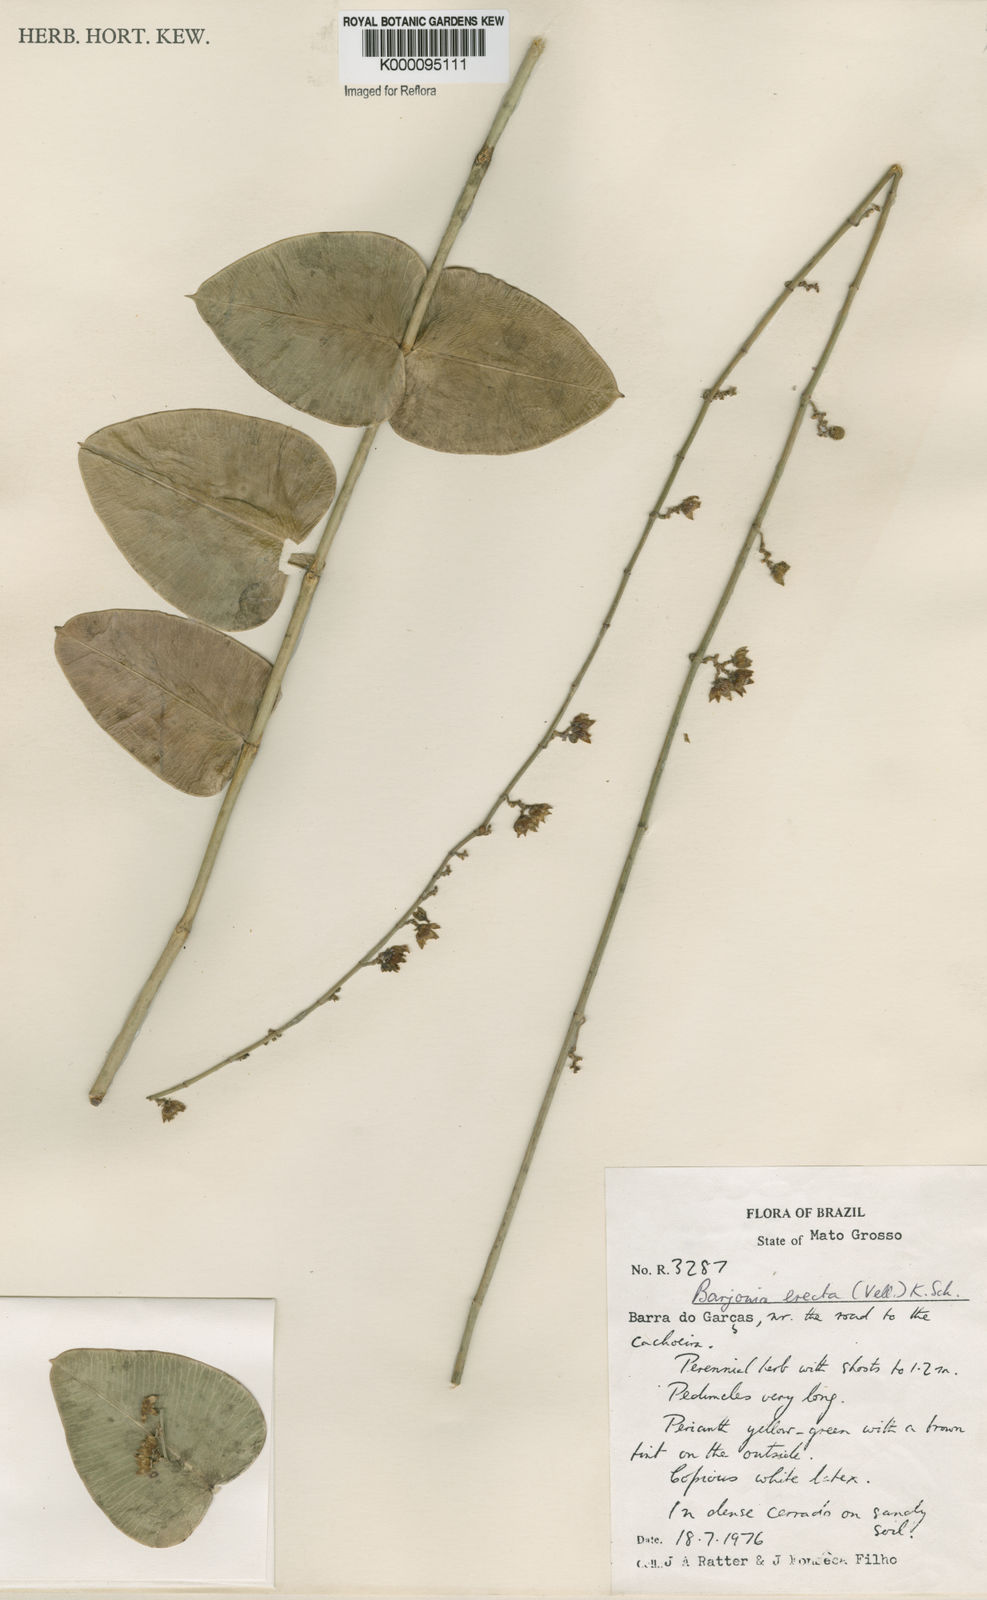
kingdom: Plantae
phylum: Tracheophyta
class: Magnoliopsida
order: Gentianales
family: Apocynaceae
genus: Barjonia
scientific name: Barjonia erecta
